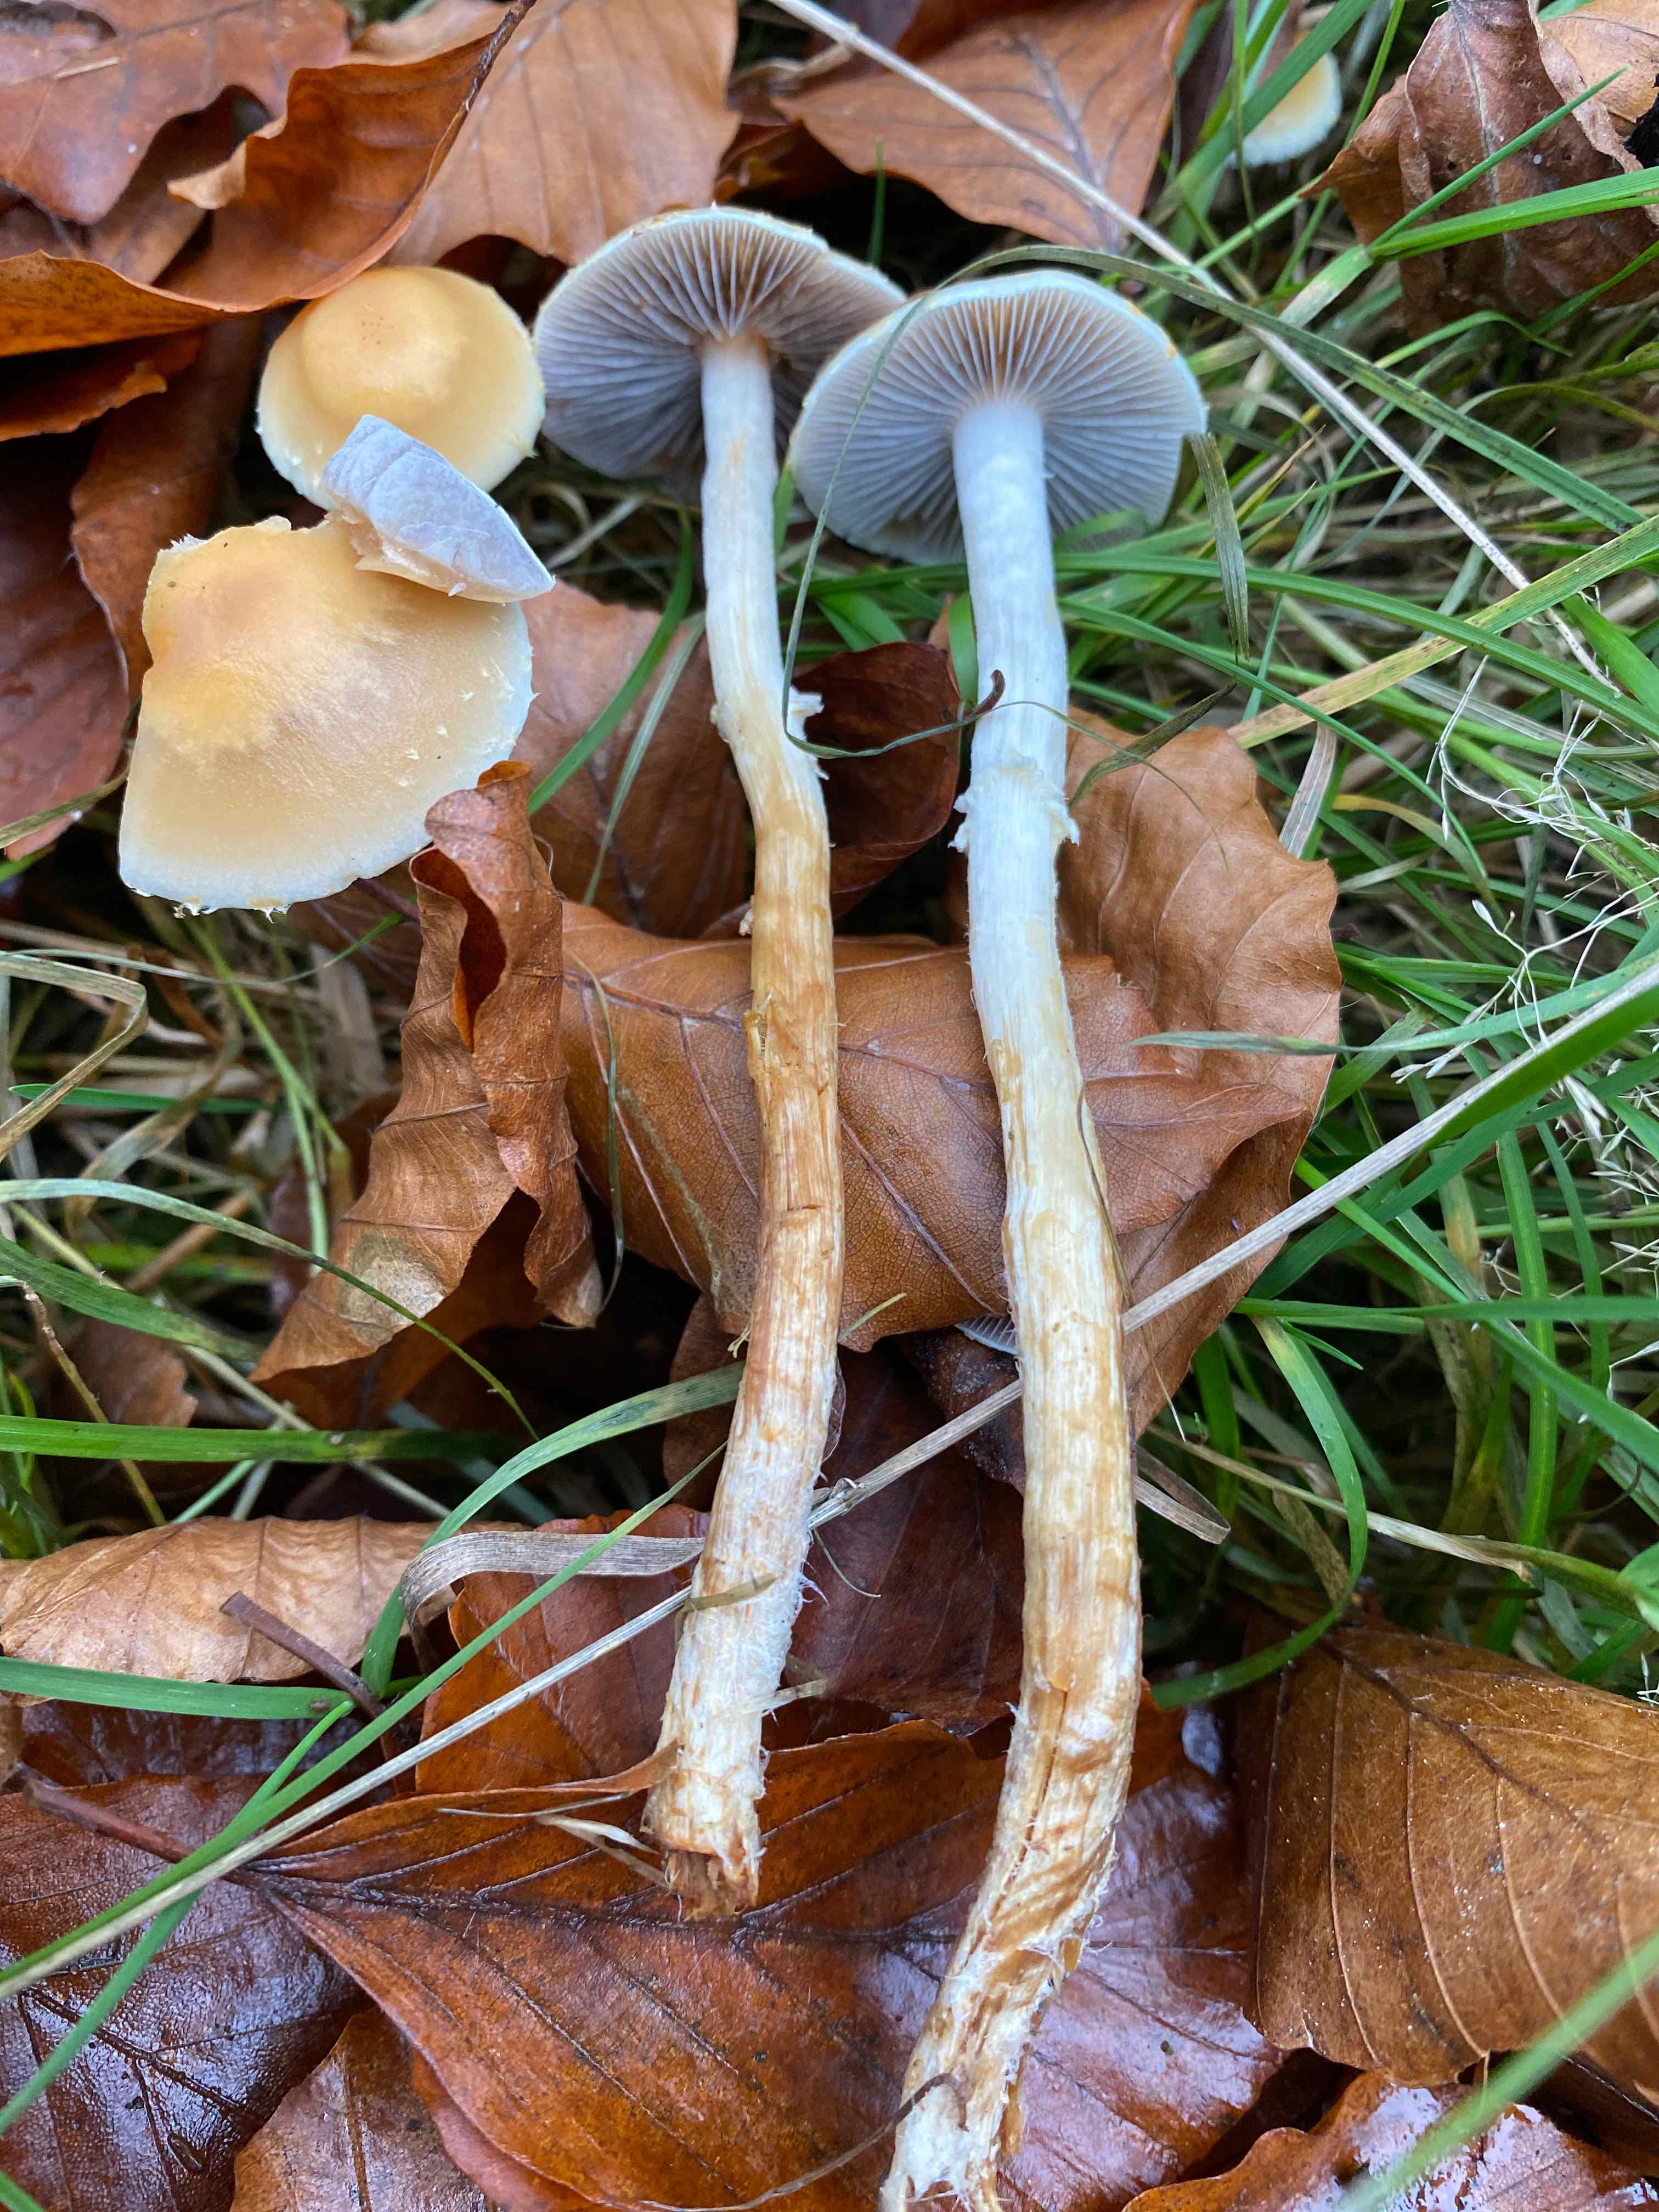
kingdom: Fungi
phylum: Basidiomycota
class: Agaricomycetes
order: Agaricales
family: Strophariaceae
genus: Leratiomyces
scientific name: Leratiomyces squamosus
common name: skællet bredblad
